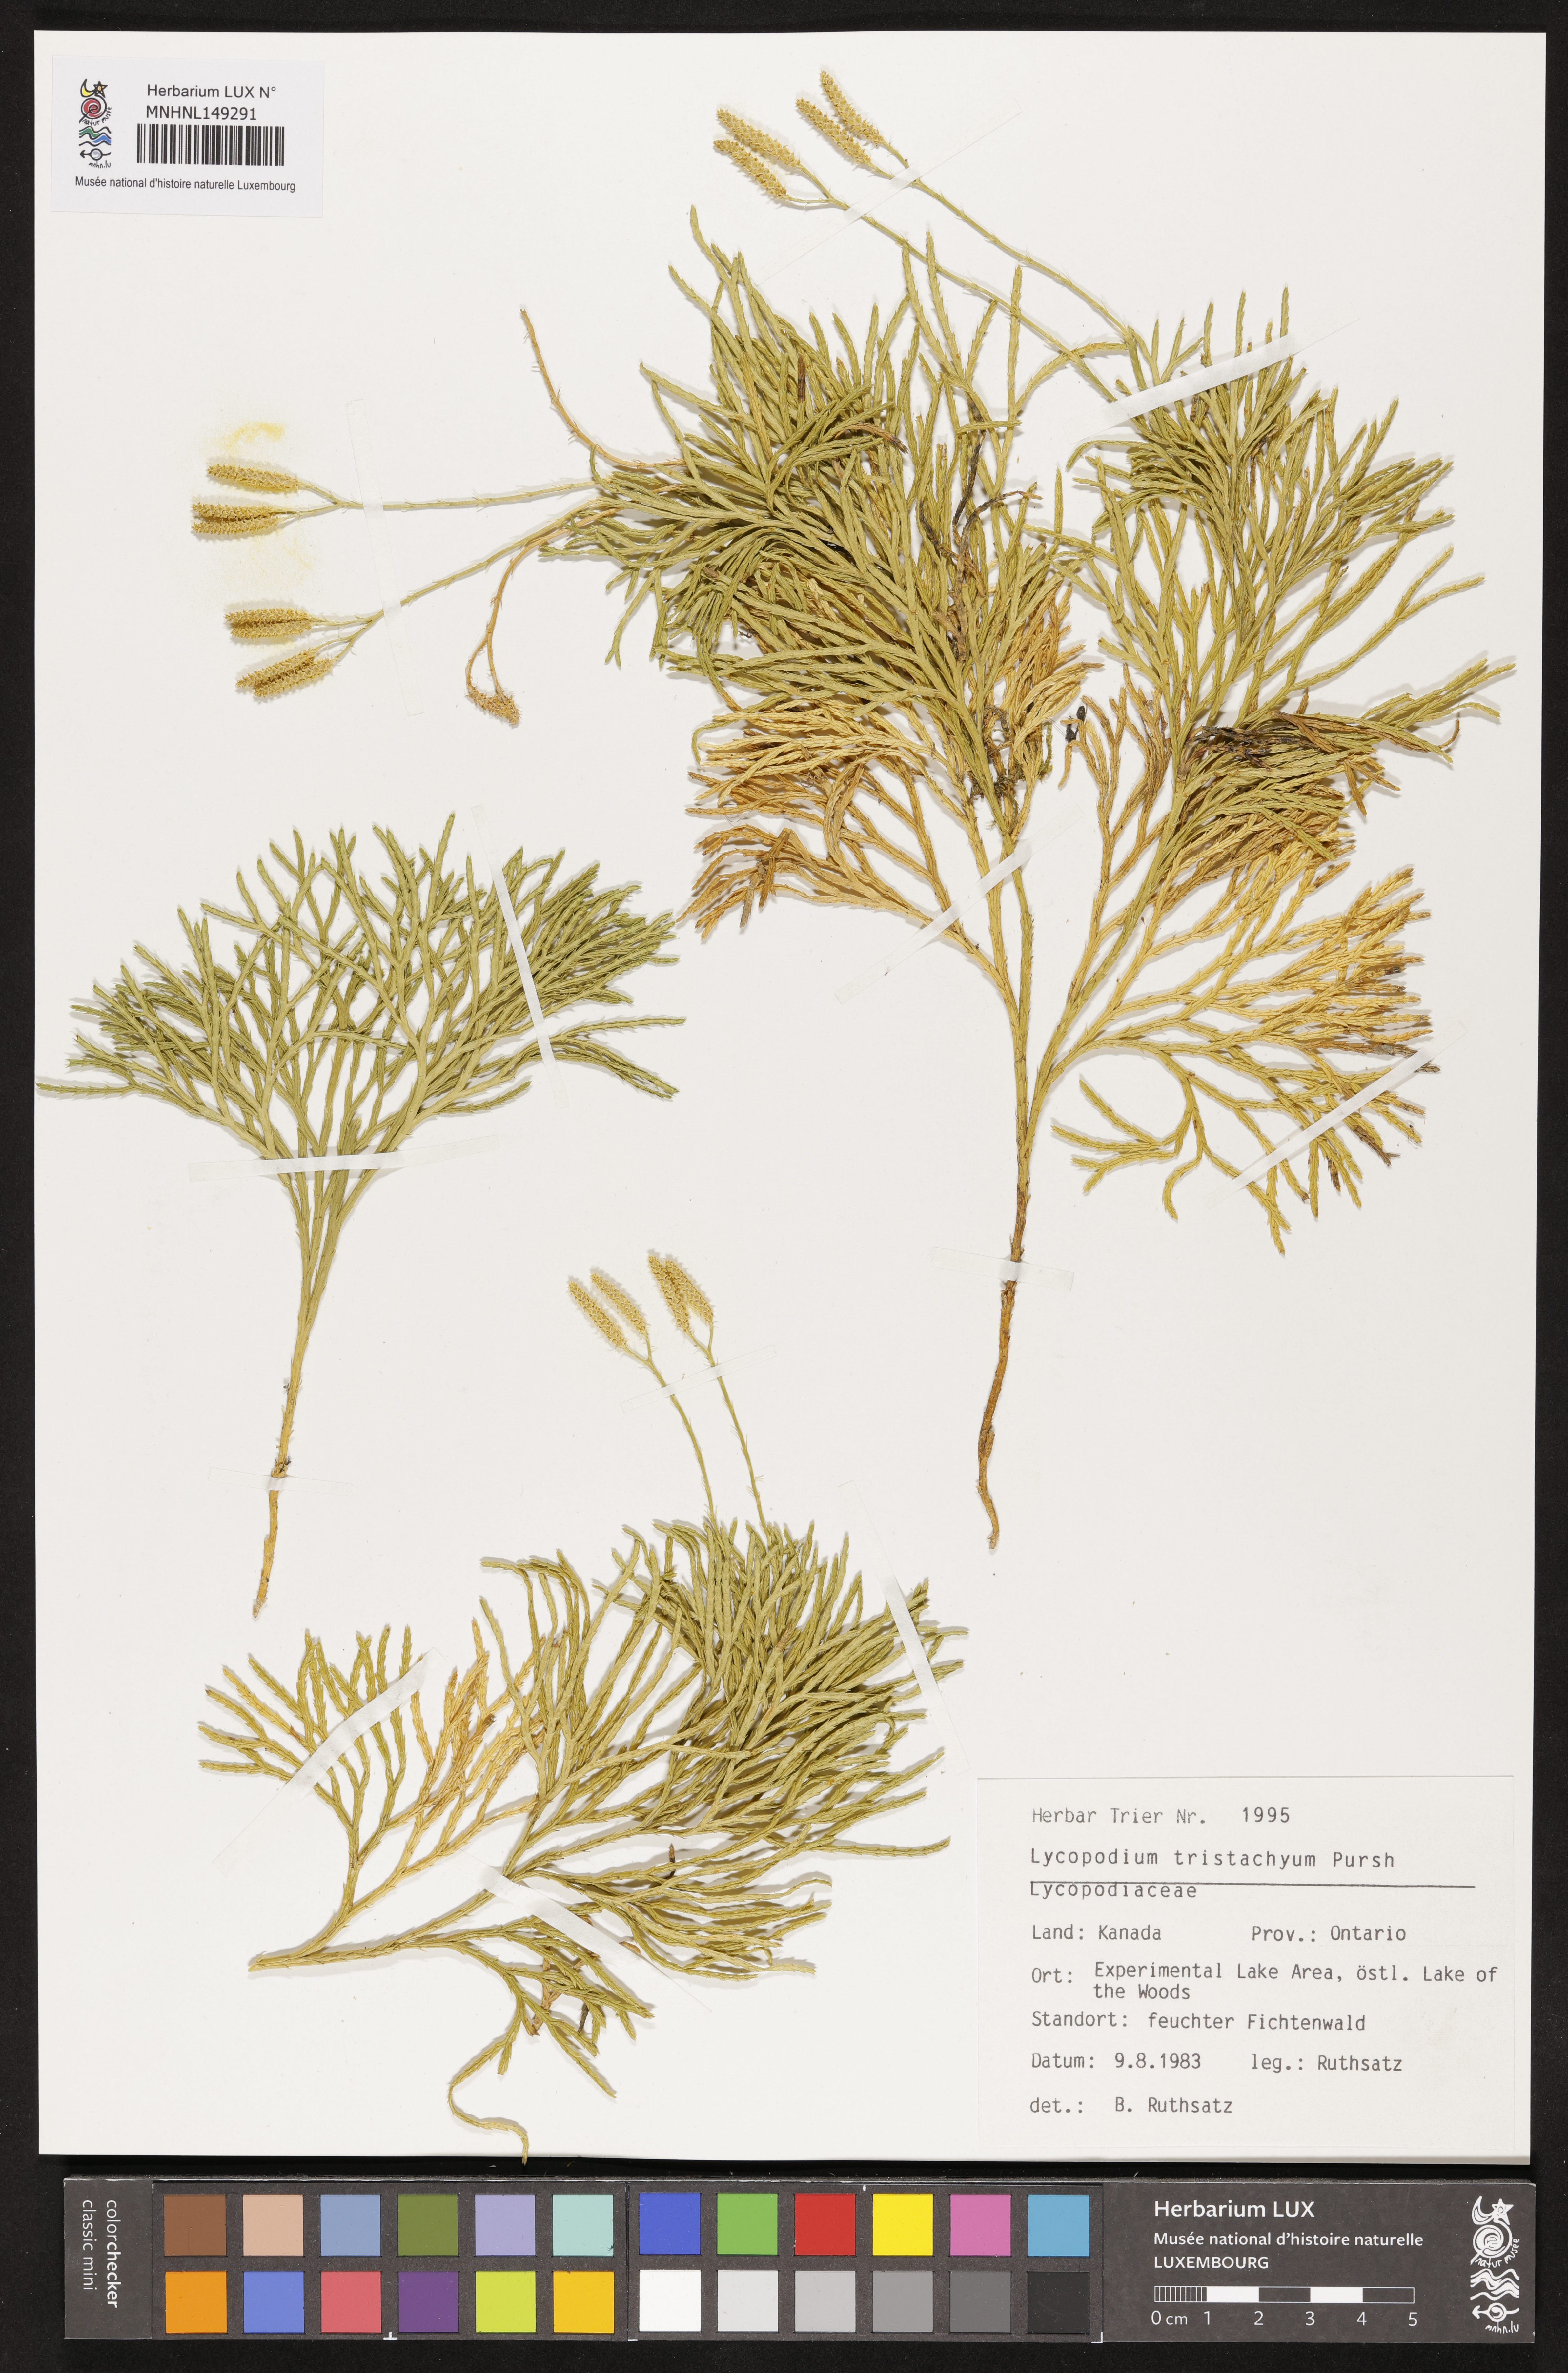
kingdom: Plantae
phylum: Tracheophyta
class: Lycopodiopsida
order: Lycopodiales
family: Lycopodiaceae
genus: Diphasiastrum
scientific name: Diphasiastrum tristachyum
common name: Blue ground-cedar
